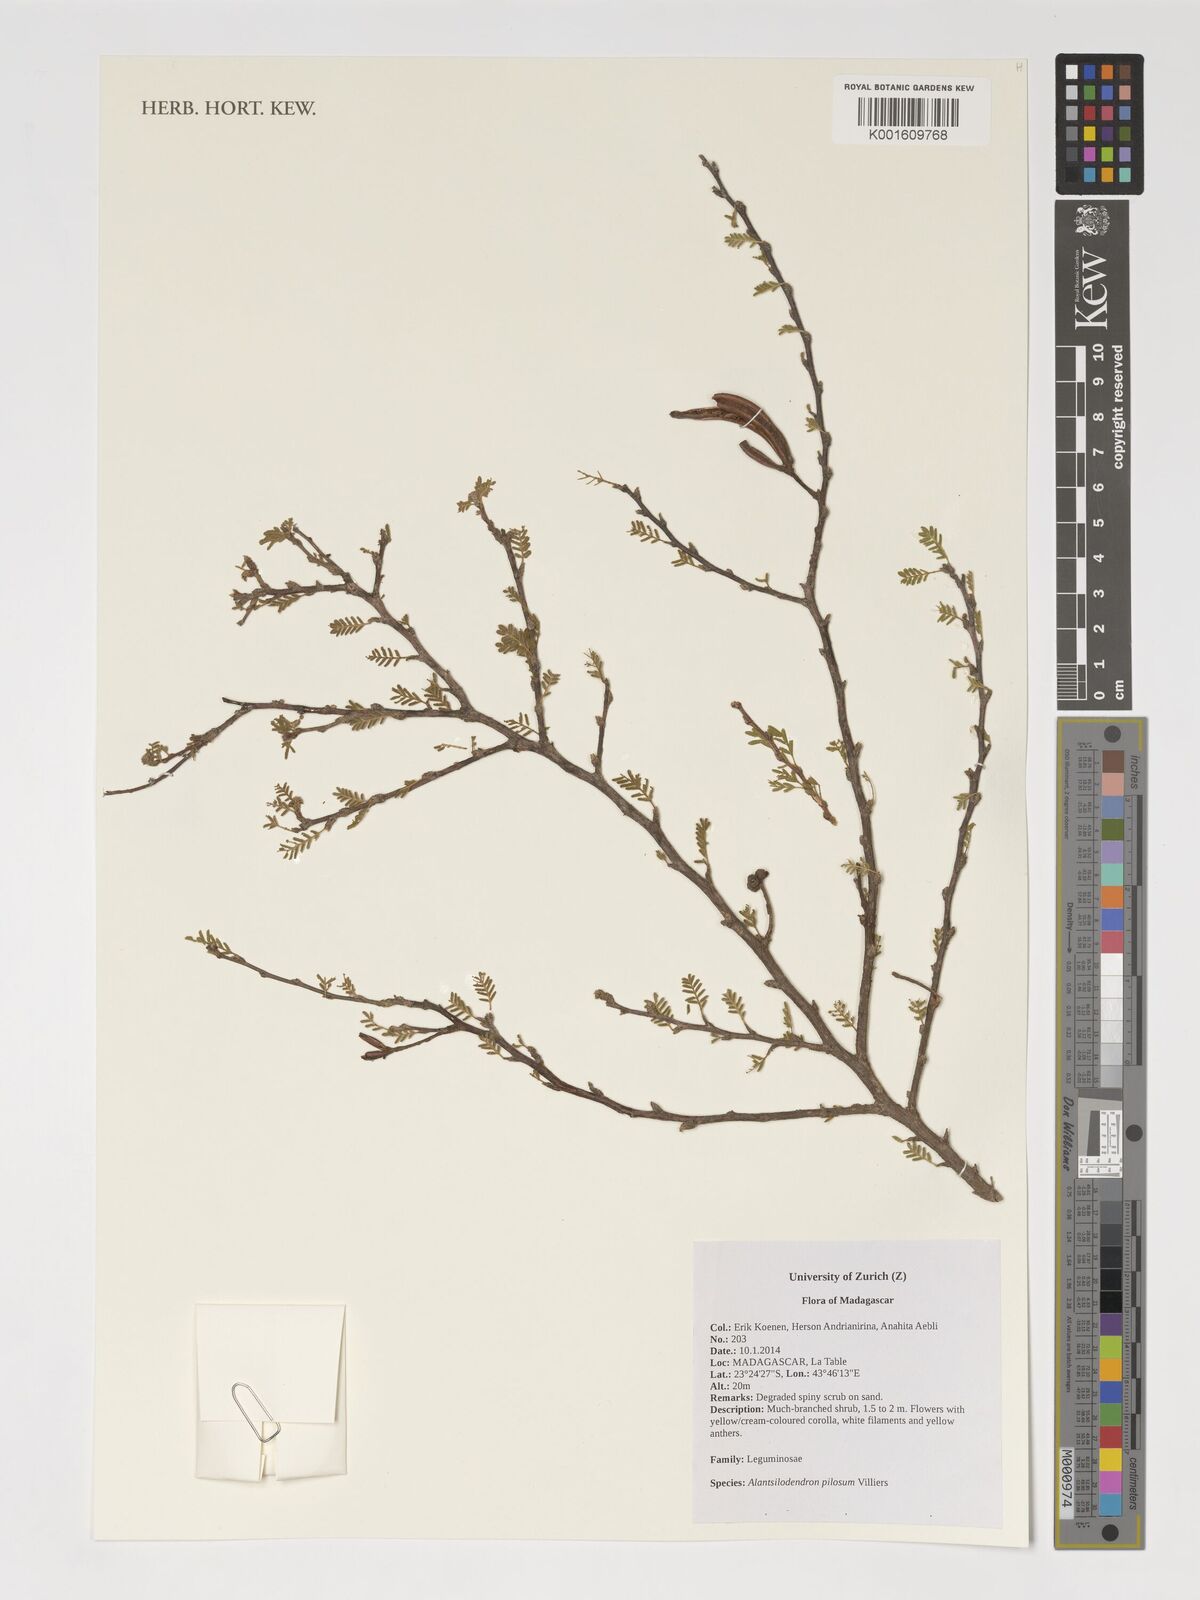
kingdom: Plantae
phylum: Tracheophyta
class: Magnoliopsida
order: Fabales
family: Fabaceae
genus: Alantsilodendron
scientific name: Alantsilodendron pilosum
